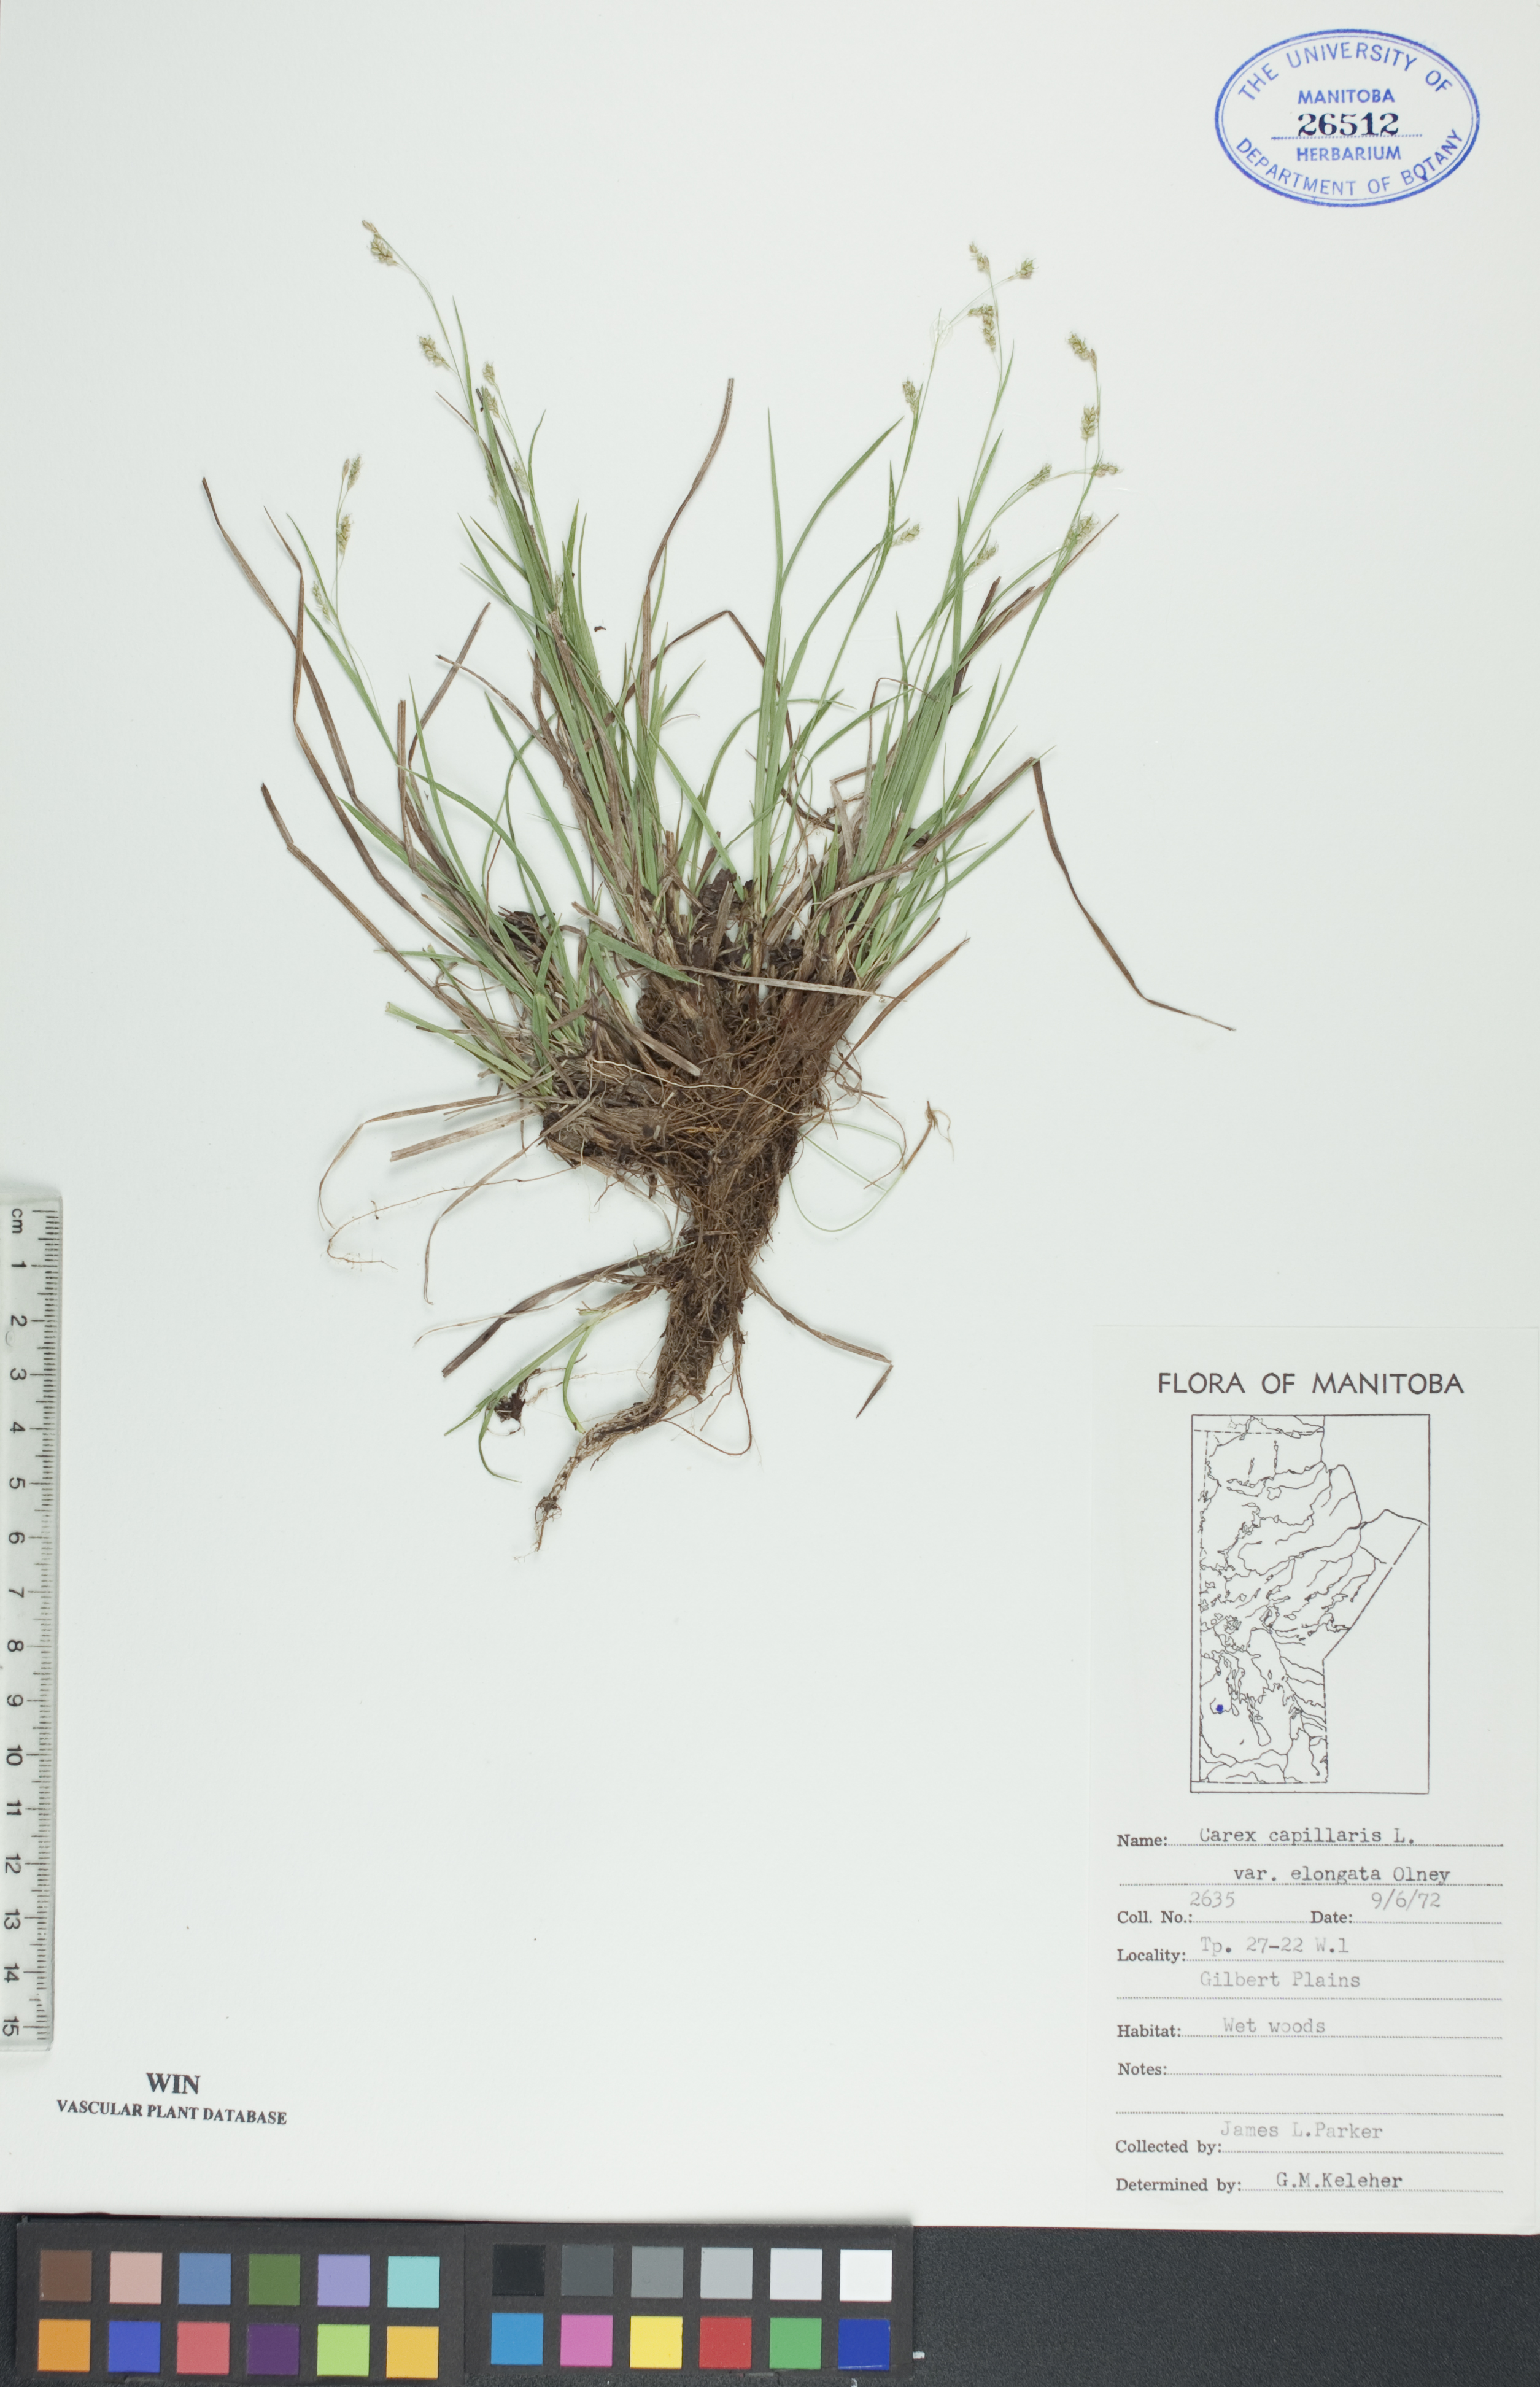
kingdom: Plantae
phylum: Tracheophyta
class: Liliopsida
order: Poales
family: Cyperaceae
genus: Carex
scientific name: Carex capillaris
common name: Hair sedge
